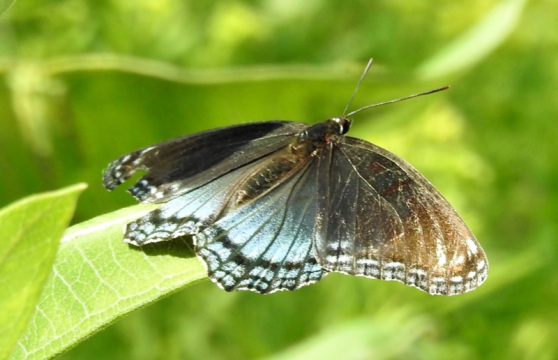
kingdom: Animalia
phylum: Arthropoda
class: Insecta
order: Lepidoptera
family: Nymphalidae
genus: Limenitis
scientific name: Limenitis arthemis
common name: Red-spotted Admiral
